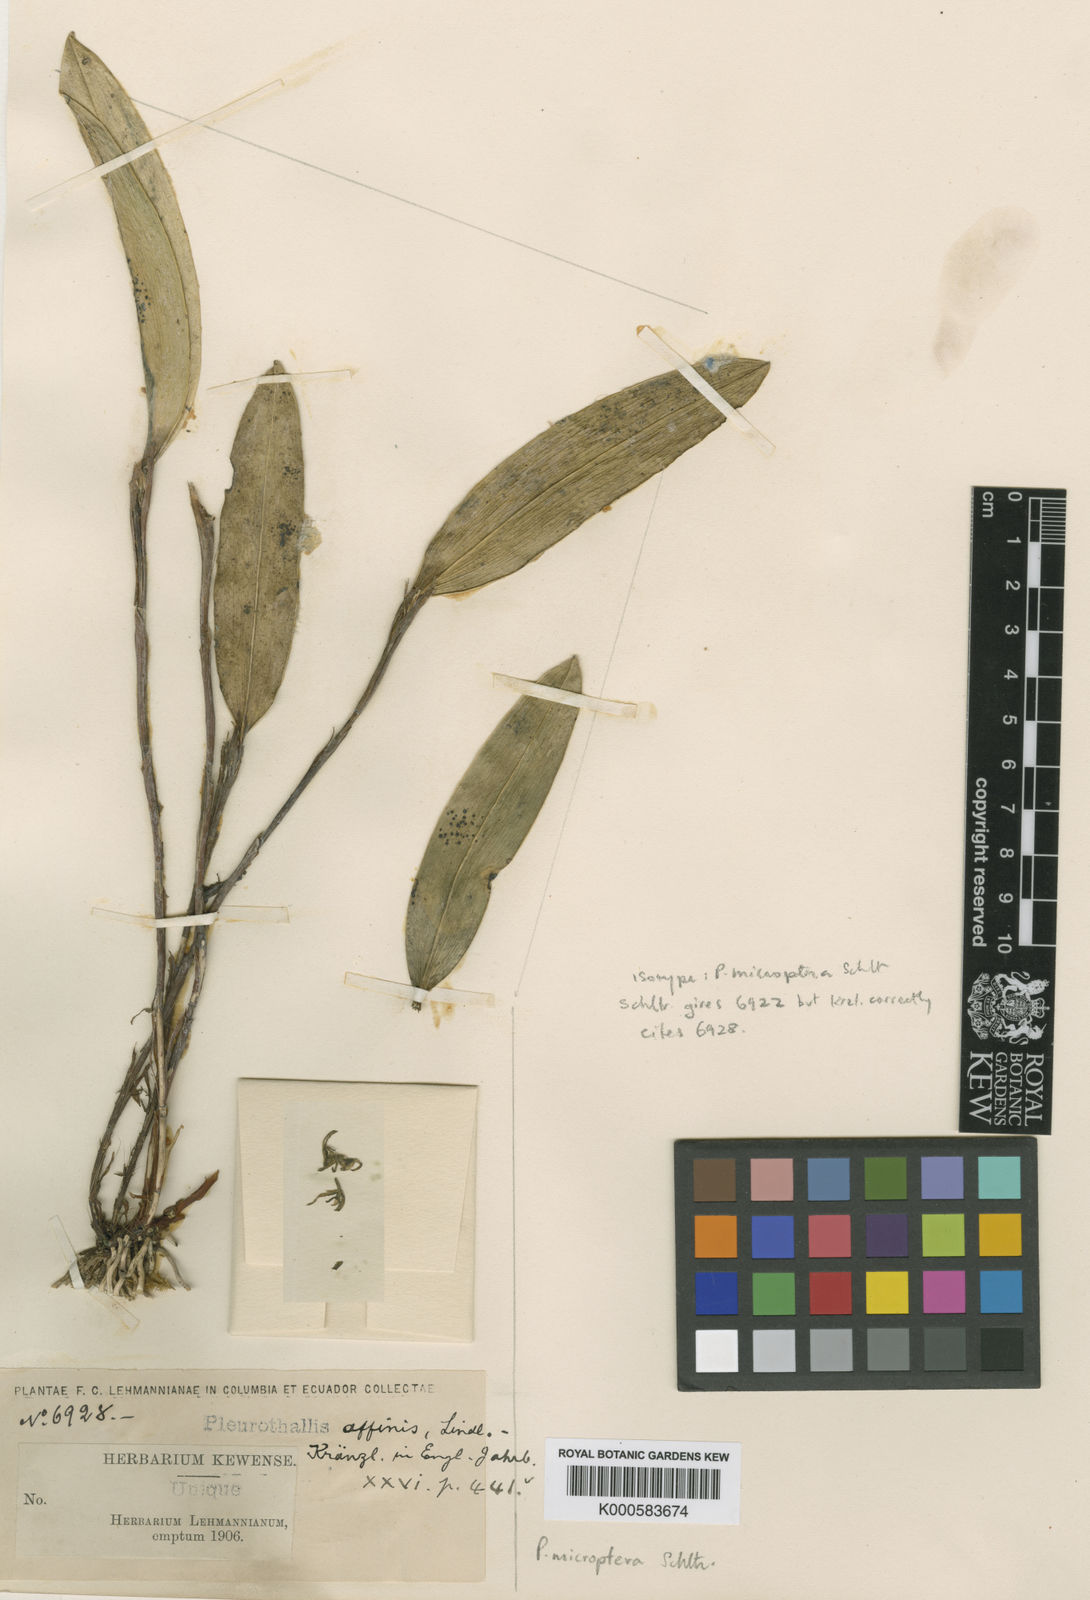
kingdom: Plantae
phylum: Tracheophyta
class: Liliopsida
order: Asparagales
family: Orchidaceae
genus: Pleurothallopsis
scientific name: Pleurothallopsis microptera
